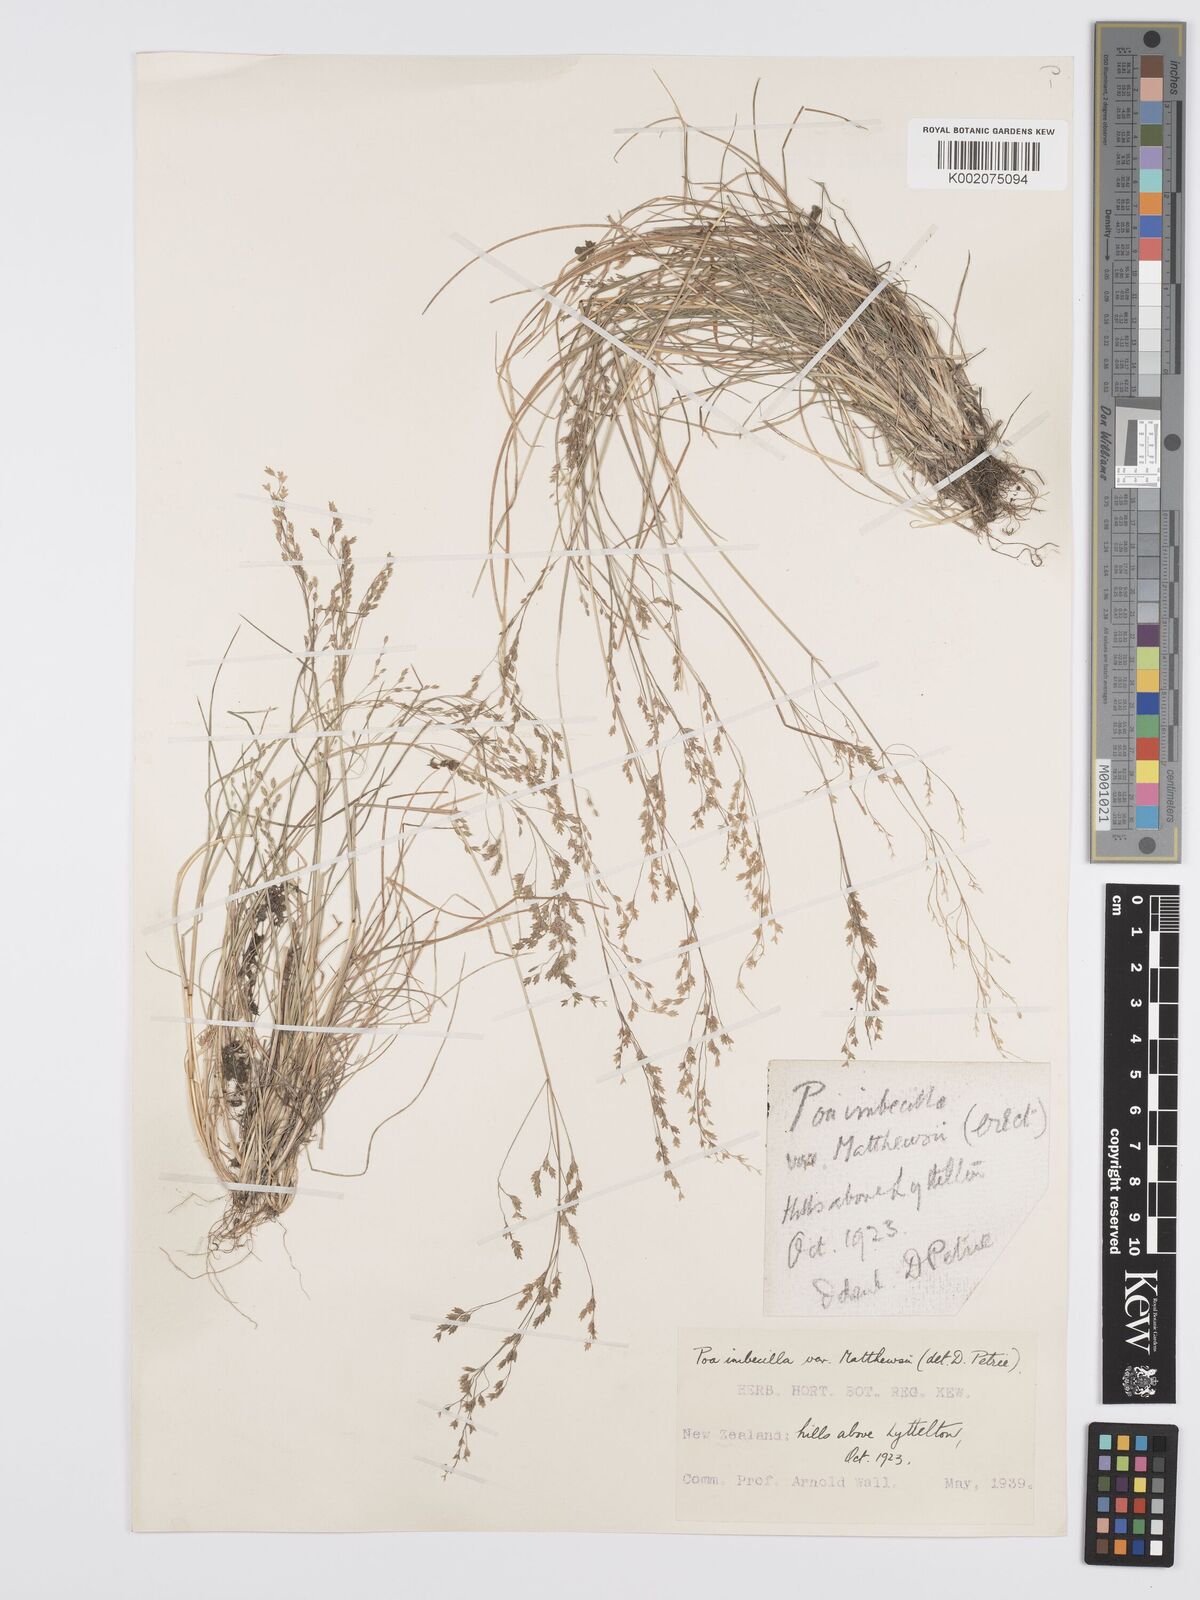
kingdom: Plantae
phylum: Tracheophyta
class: Liliopsida
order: Poales
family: Poaceae
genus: Poa
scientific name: Poa matthewsii
